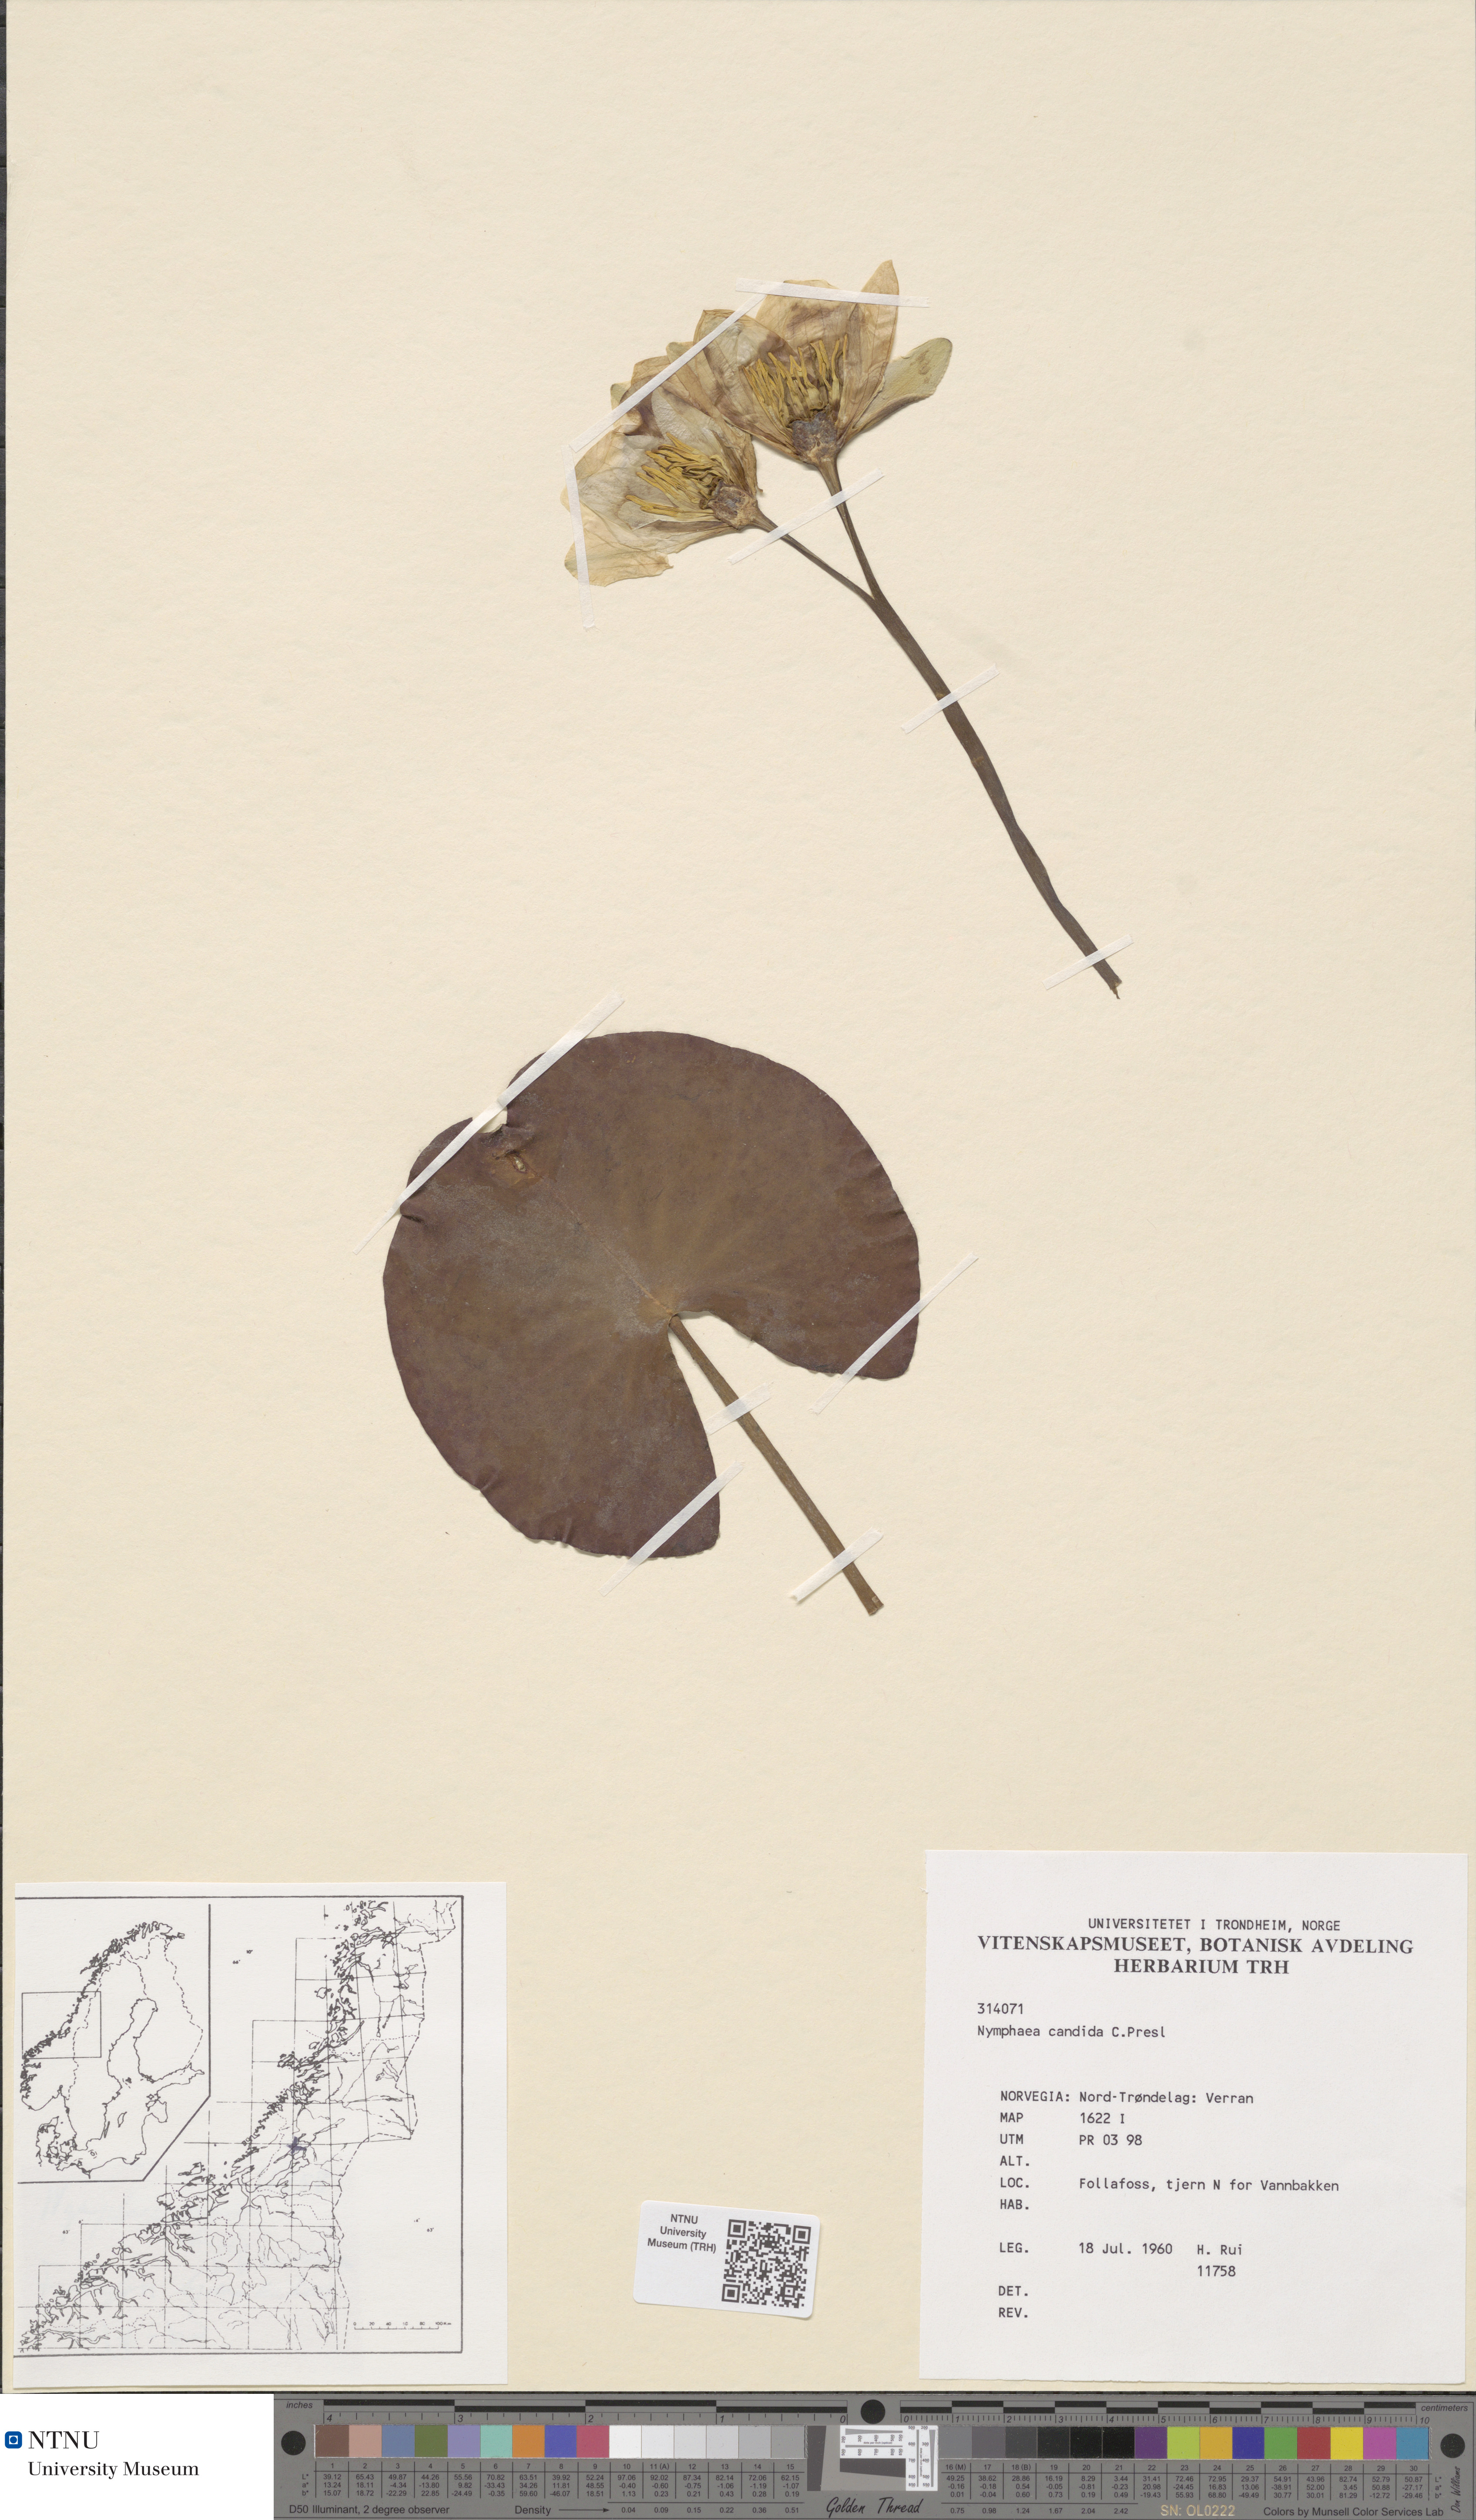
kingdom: Plantae
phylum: Tracheophyta
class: Magnoliopsida
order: Nymphaeales
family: Nymphaeaceae
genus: Nymphaea
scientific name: Nymphaea candida
